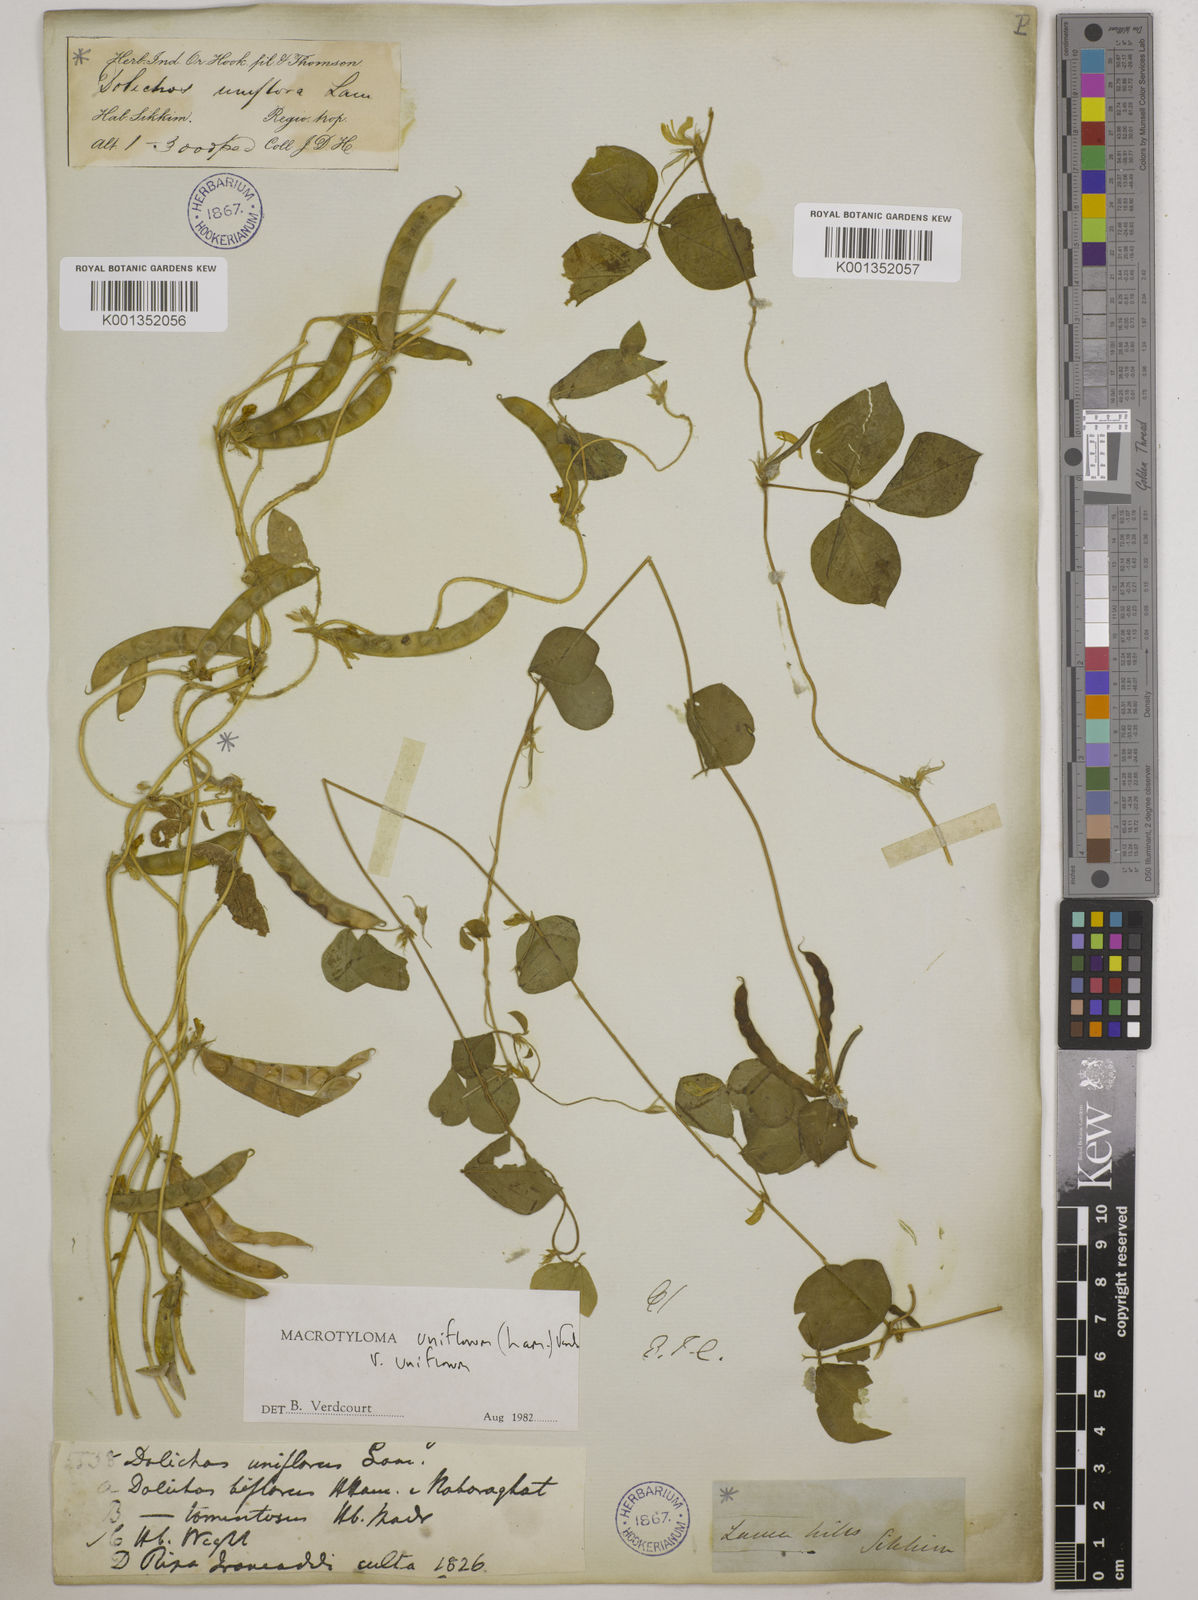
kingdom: Plantae
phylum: Tracheophyta
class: Magnoliopsida
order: Fabales
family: Fabaceae
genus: Macrotyloma
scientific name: Macrotyloma uniflorum
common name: Horse gram
